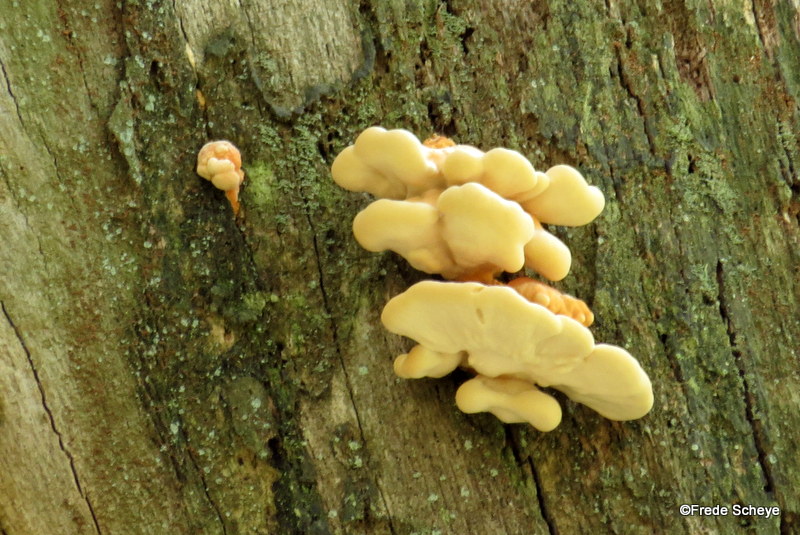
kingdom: Fungi
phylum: Basidiomycota
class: Agaricomycetes
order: Polyporales
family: Laetiporaceae
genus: Laetiporus
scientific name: Laetiporus sulphureus
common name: svovlporesvamp
